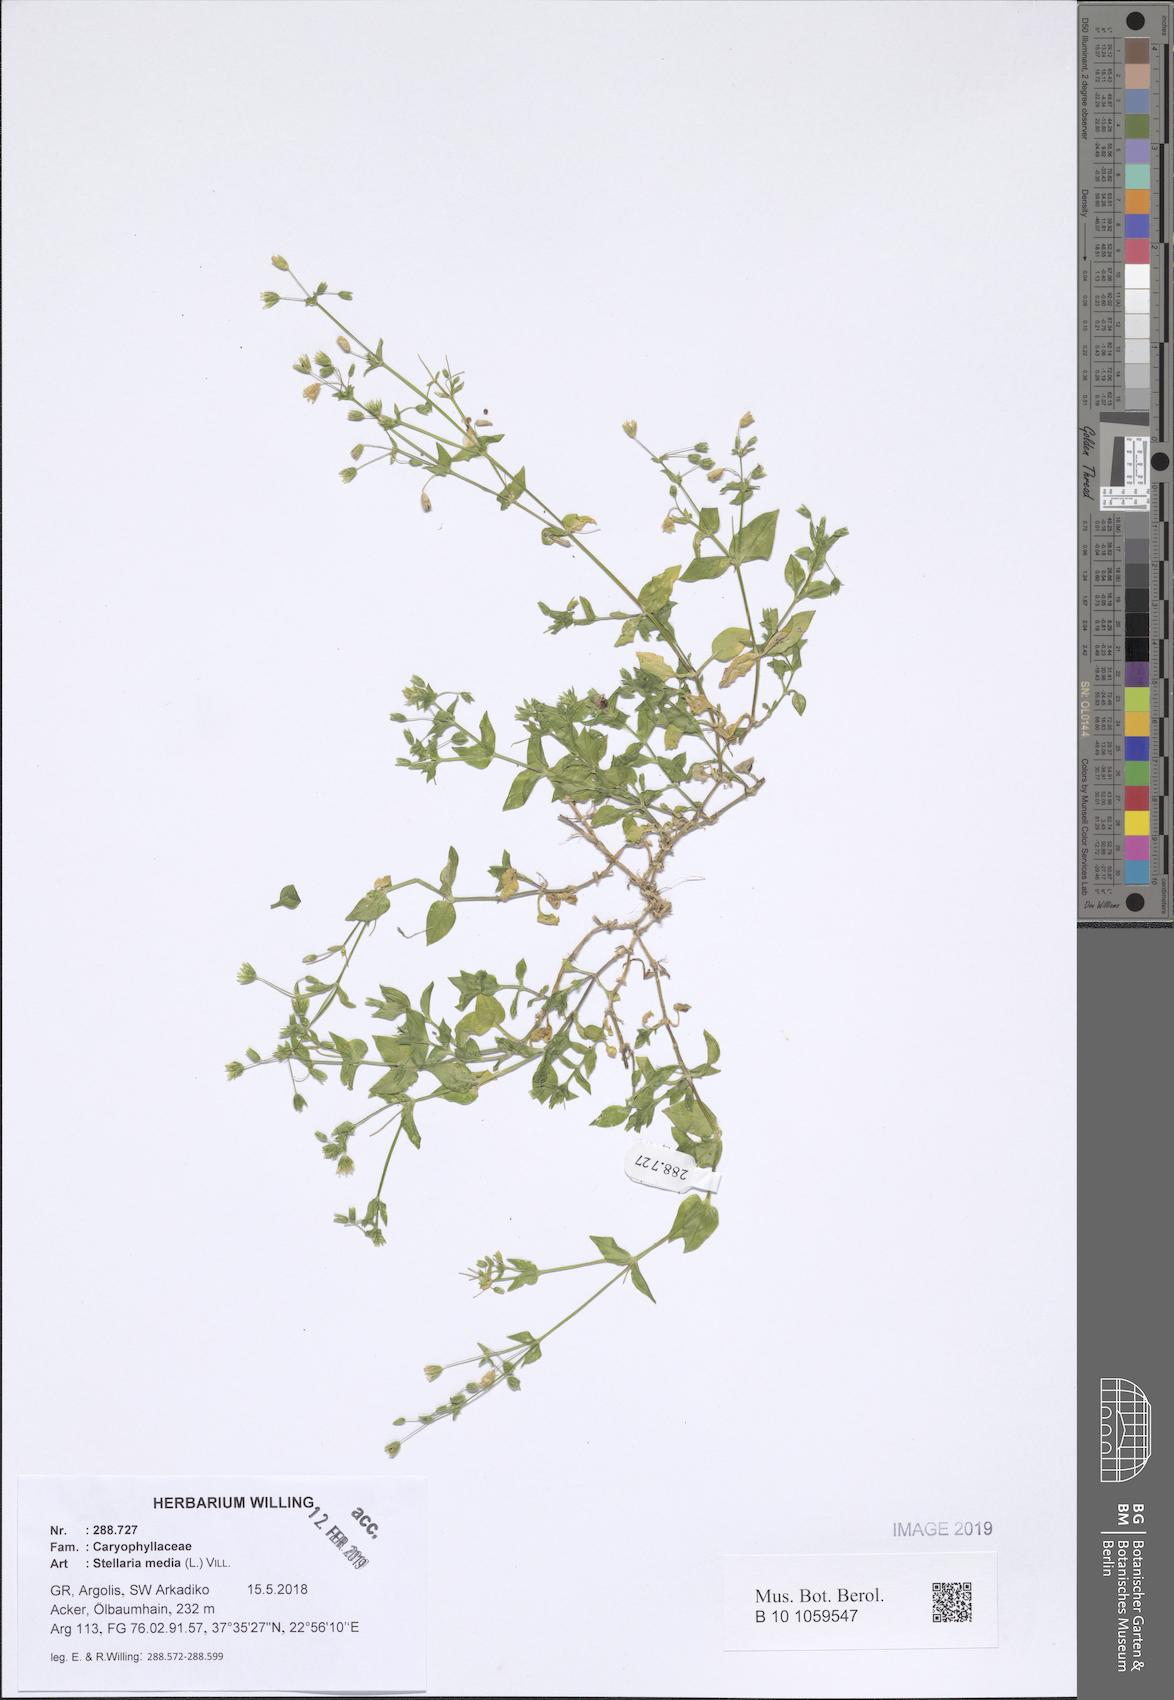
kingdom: Plantae
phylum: Tracheophyta
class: Magnoliopsida
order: Caryophyllales
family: Caryophyllaceae
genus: Stellaria
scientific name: Stellaria media
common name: Common chickweed
